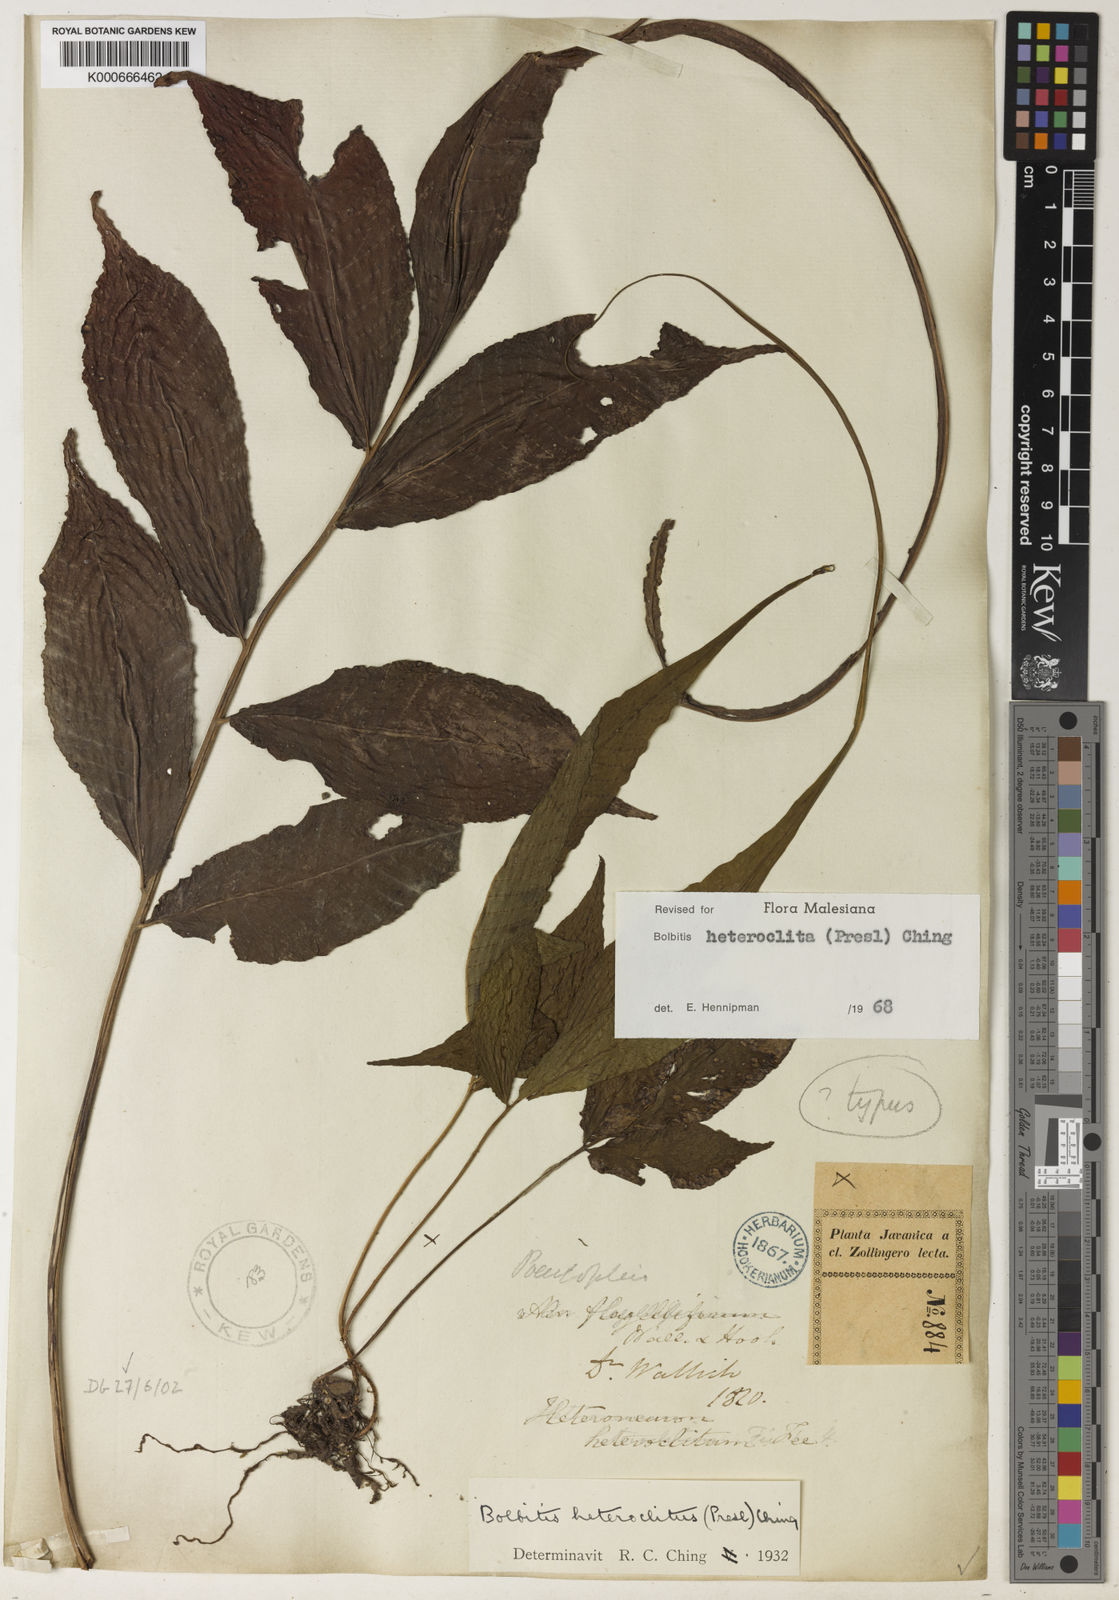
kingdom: Plantae
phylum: Tracheophyta
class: Polypodiopsida
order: Polypodiales
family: Dryopteridaceae
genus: Bolbitis
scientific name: Bolbitis heteroclita
